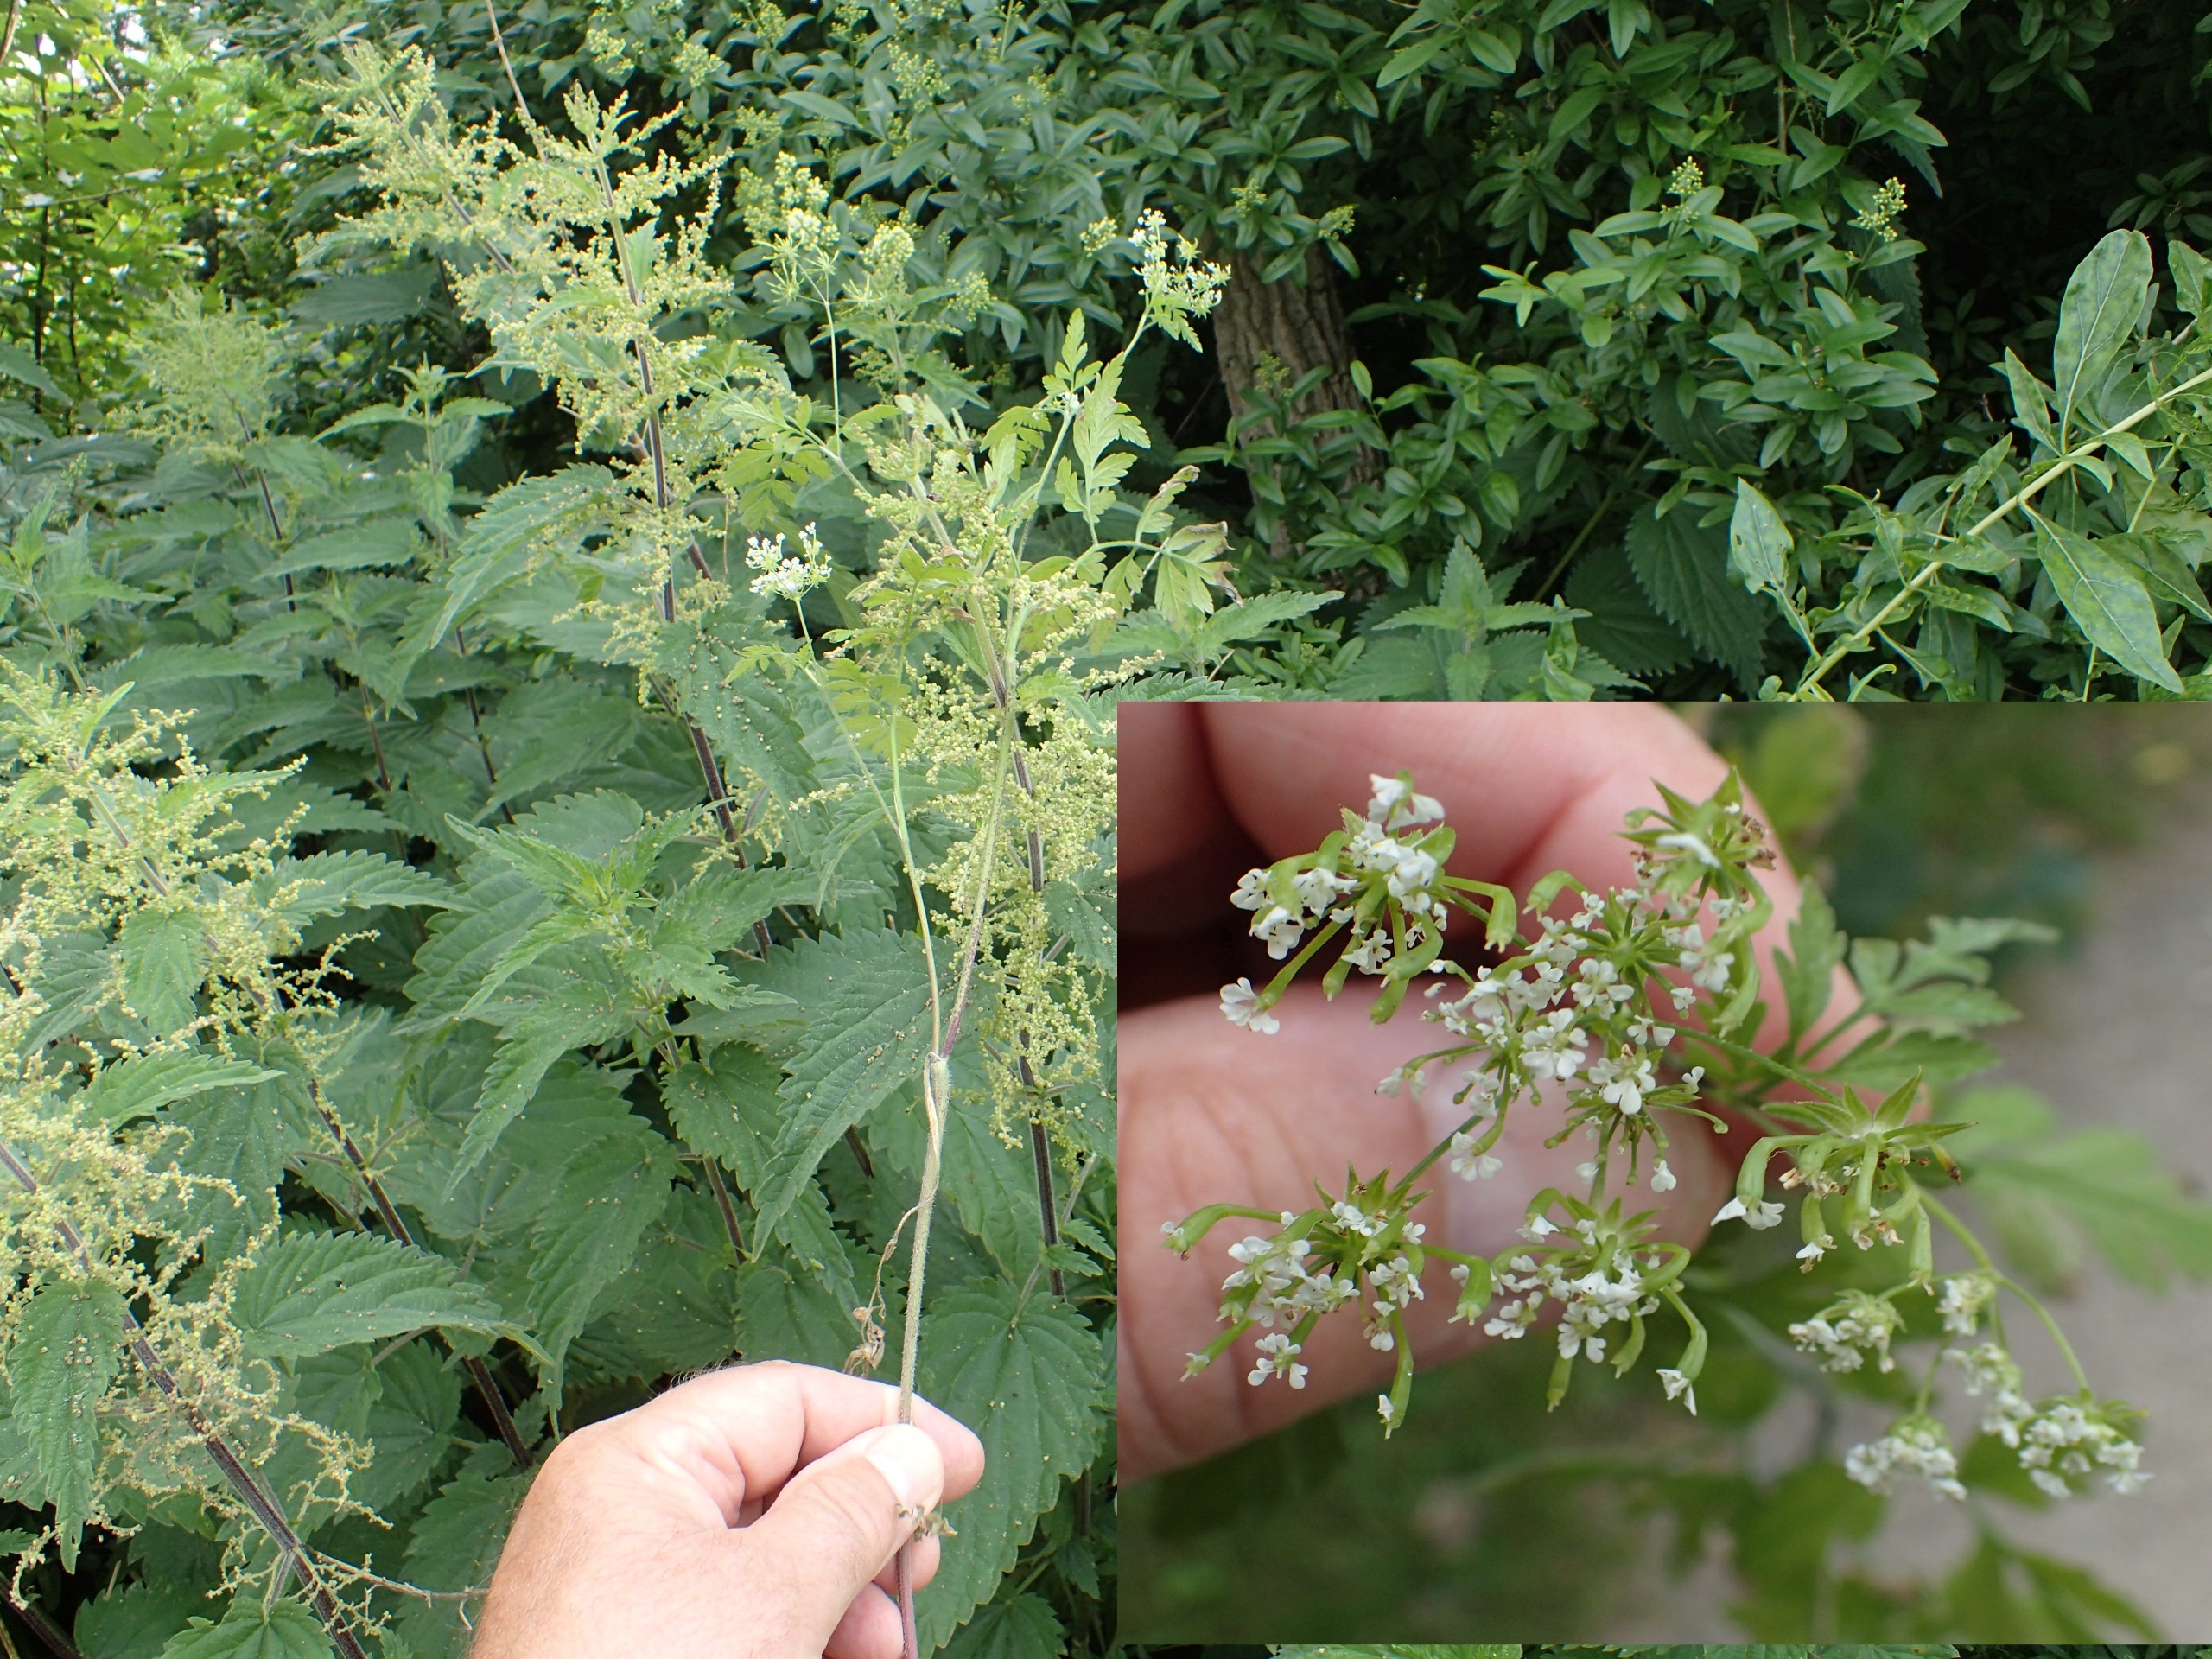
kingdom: Plantae
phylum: Tracheophyta
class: Magnoliopsida
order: Apiales
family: Apiaceae
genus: Chaerophyllum
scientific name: Chaerophyllum temulum
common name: Almindelig hulsvøb
